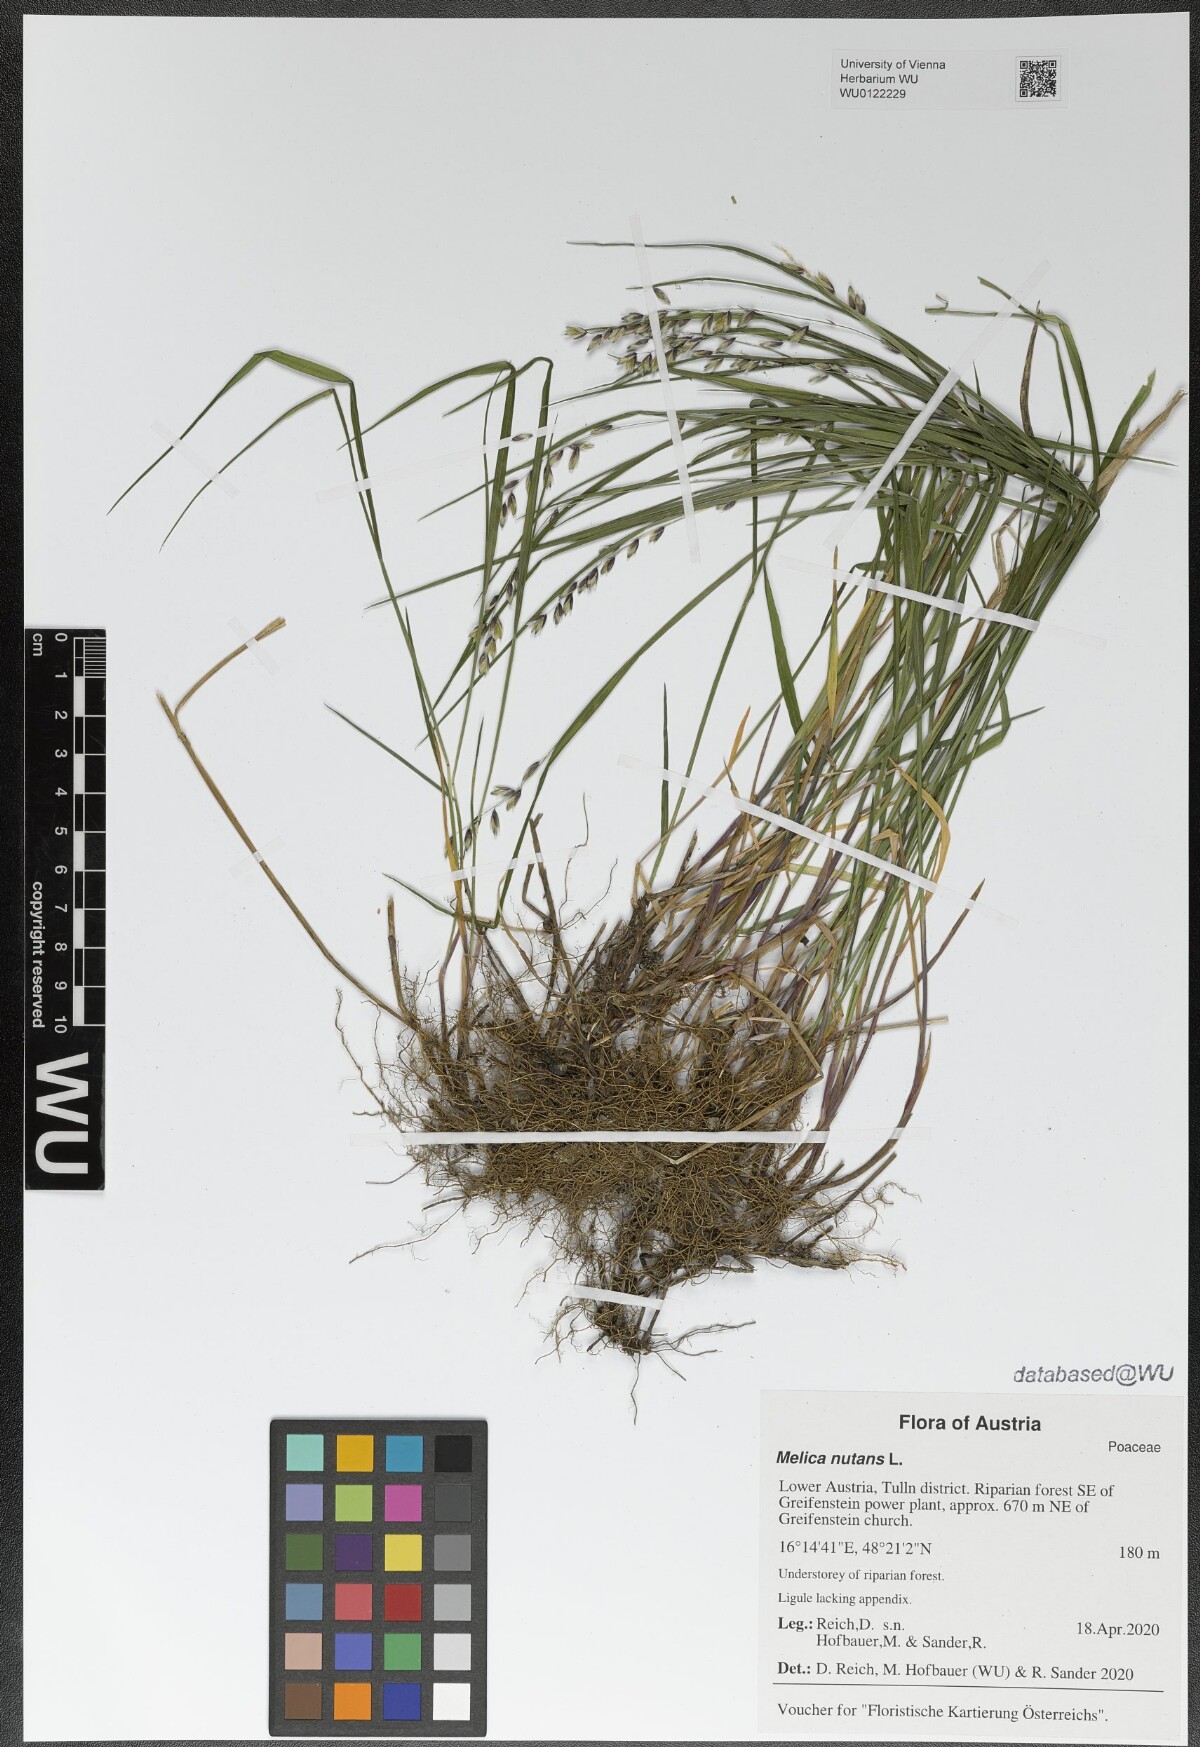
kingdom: Plantae
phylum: Tracheophyta
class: Liliopsida
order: Poales
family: Poaceae
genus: Melica
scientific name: Melica nutans
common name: Mountain melick
